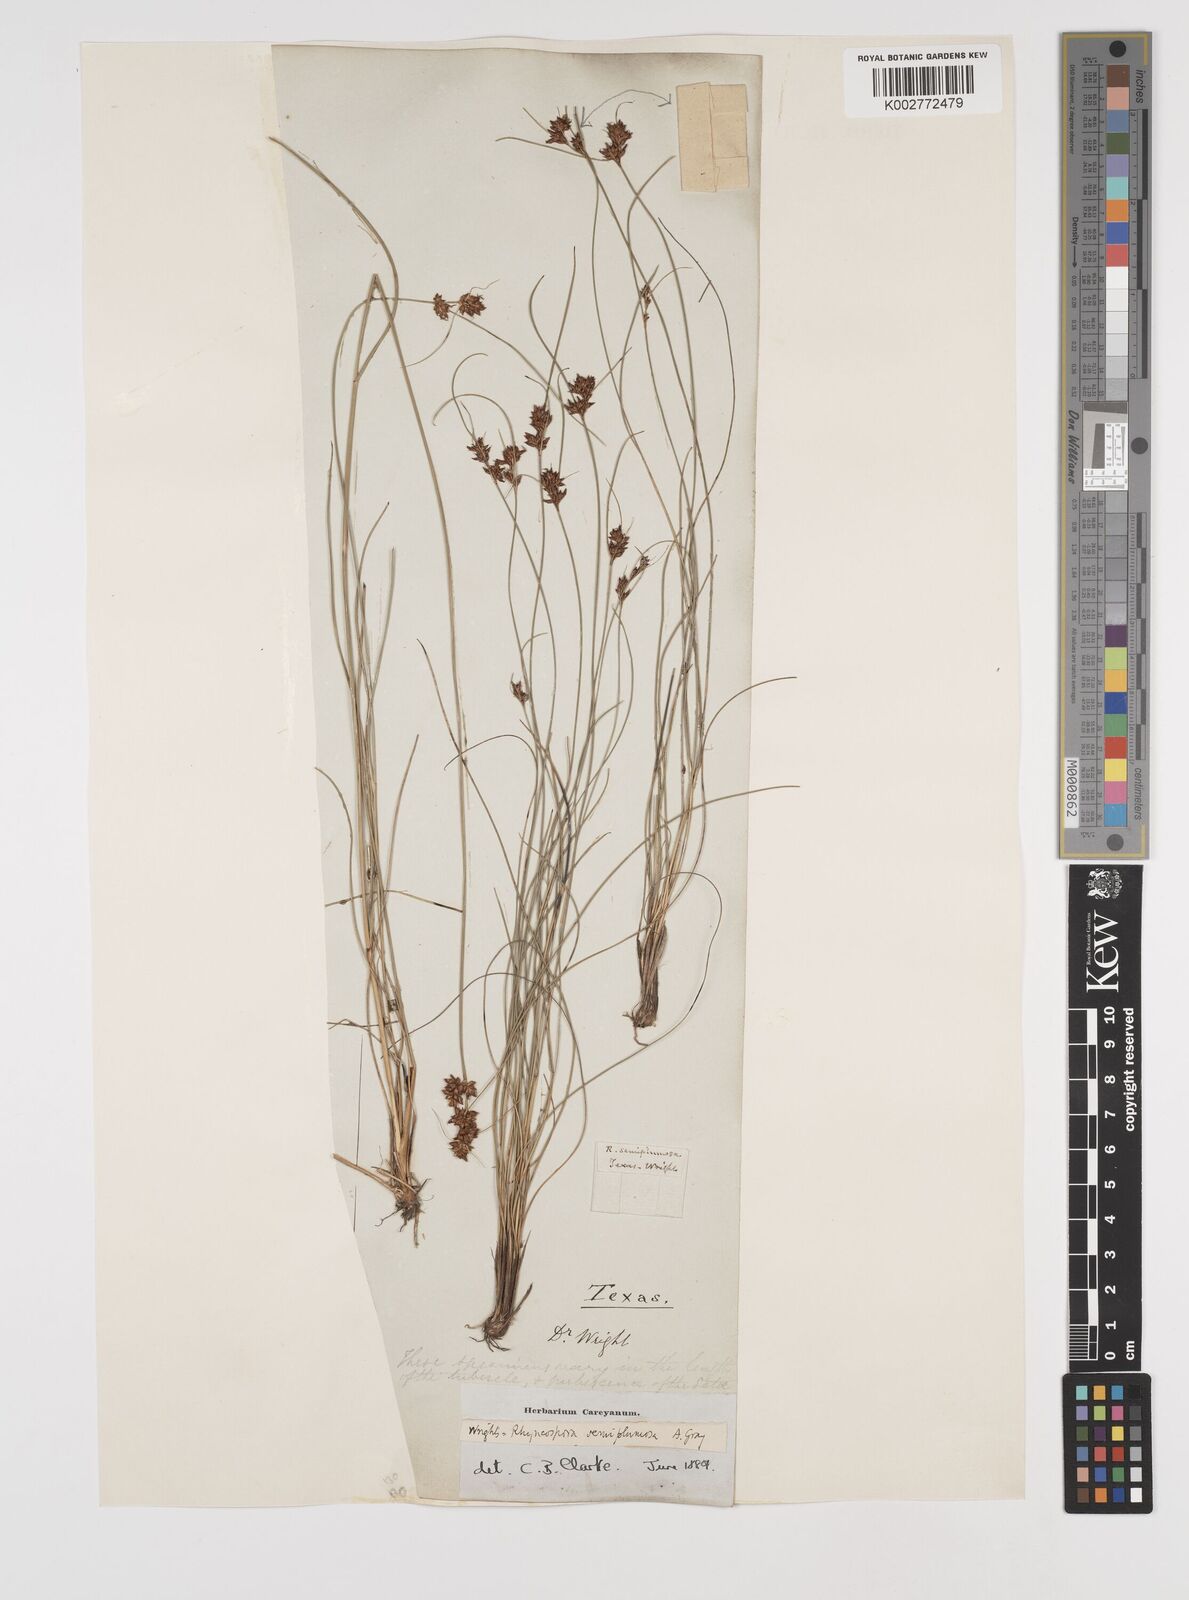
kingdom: Plantae
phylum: Tracheophyta
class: Liliopsida
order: Poales
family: Cyperaceae
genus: Rhynchospora
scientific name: Rhynchospora plumosa
